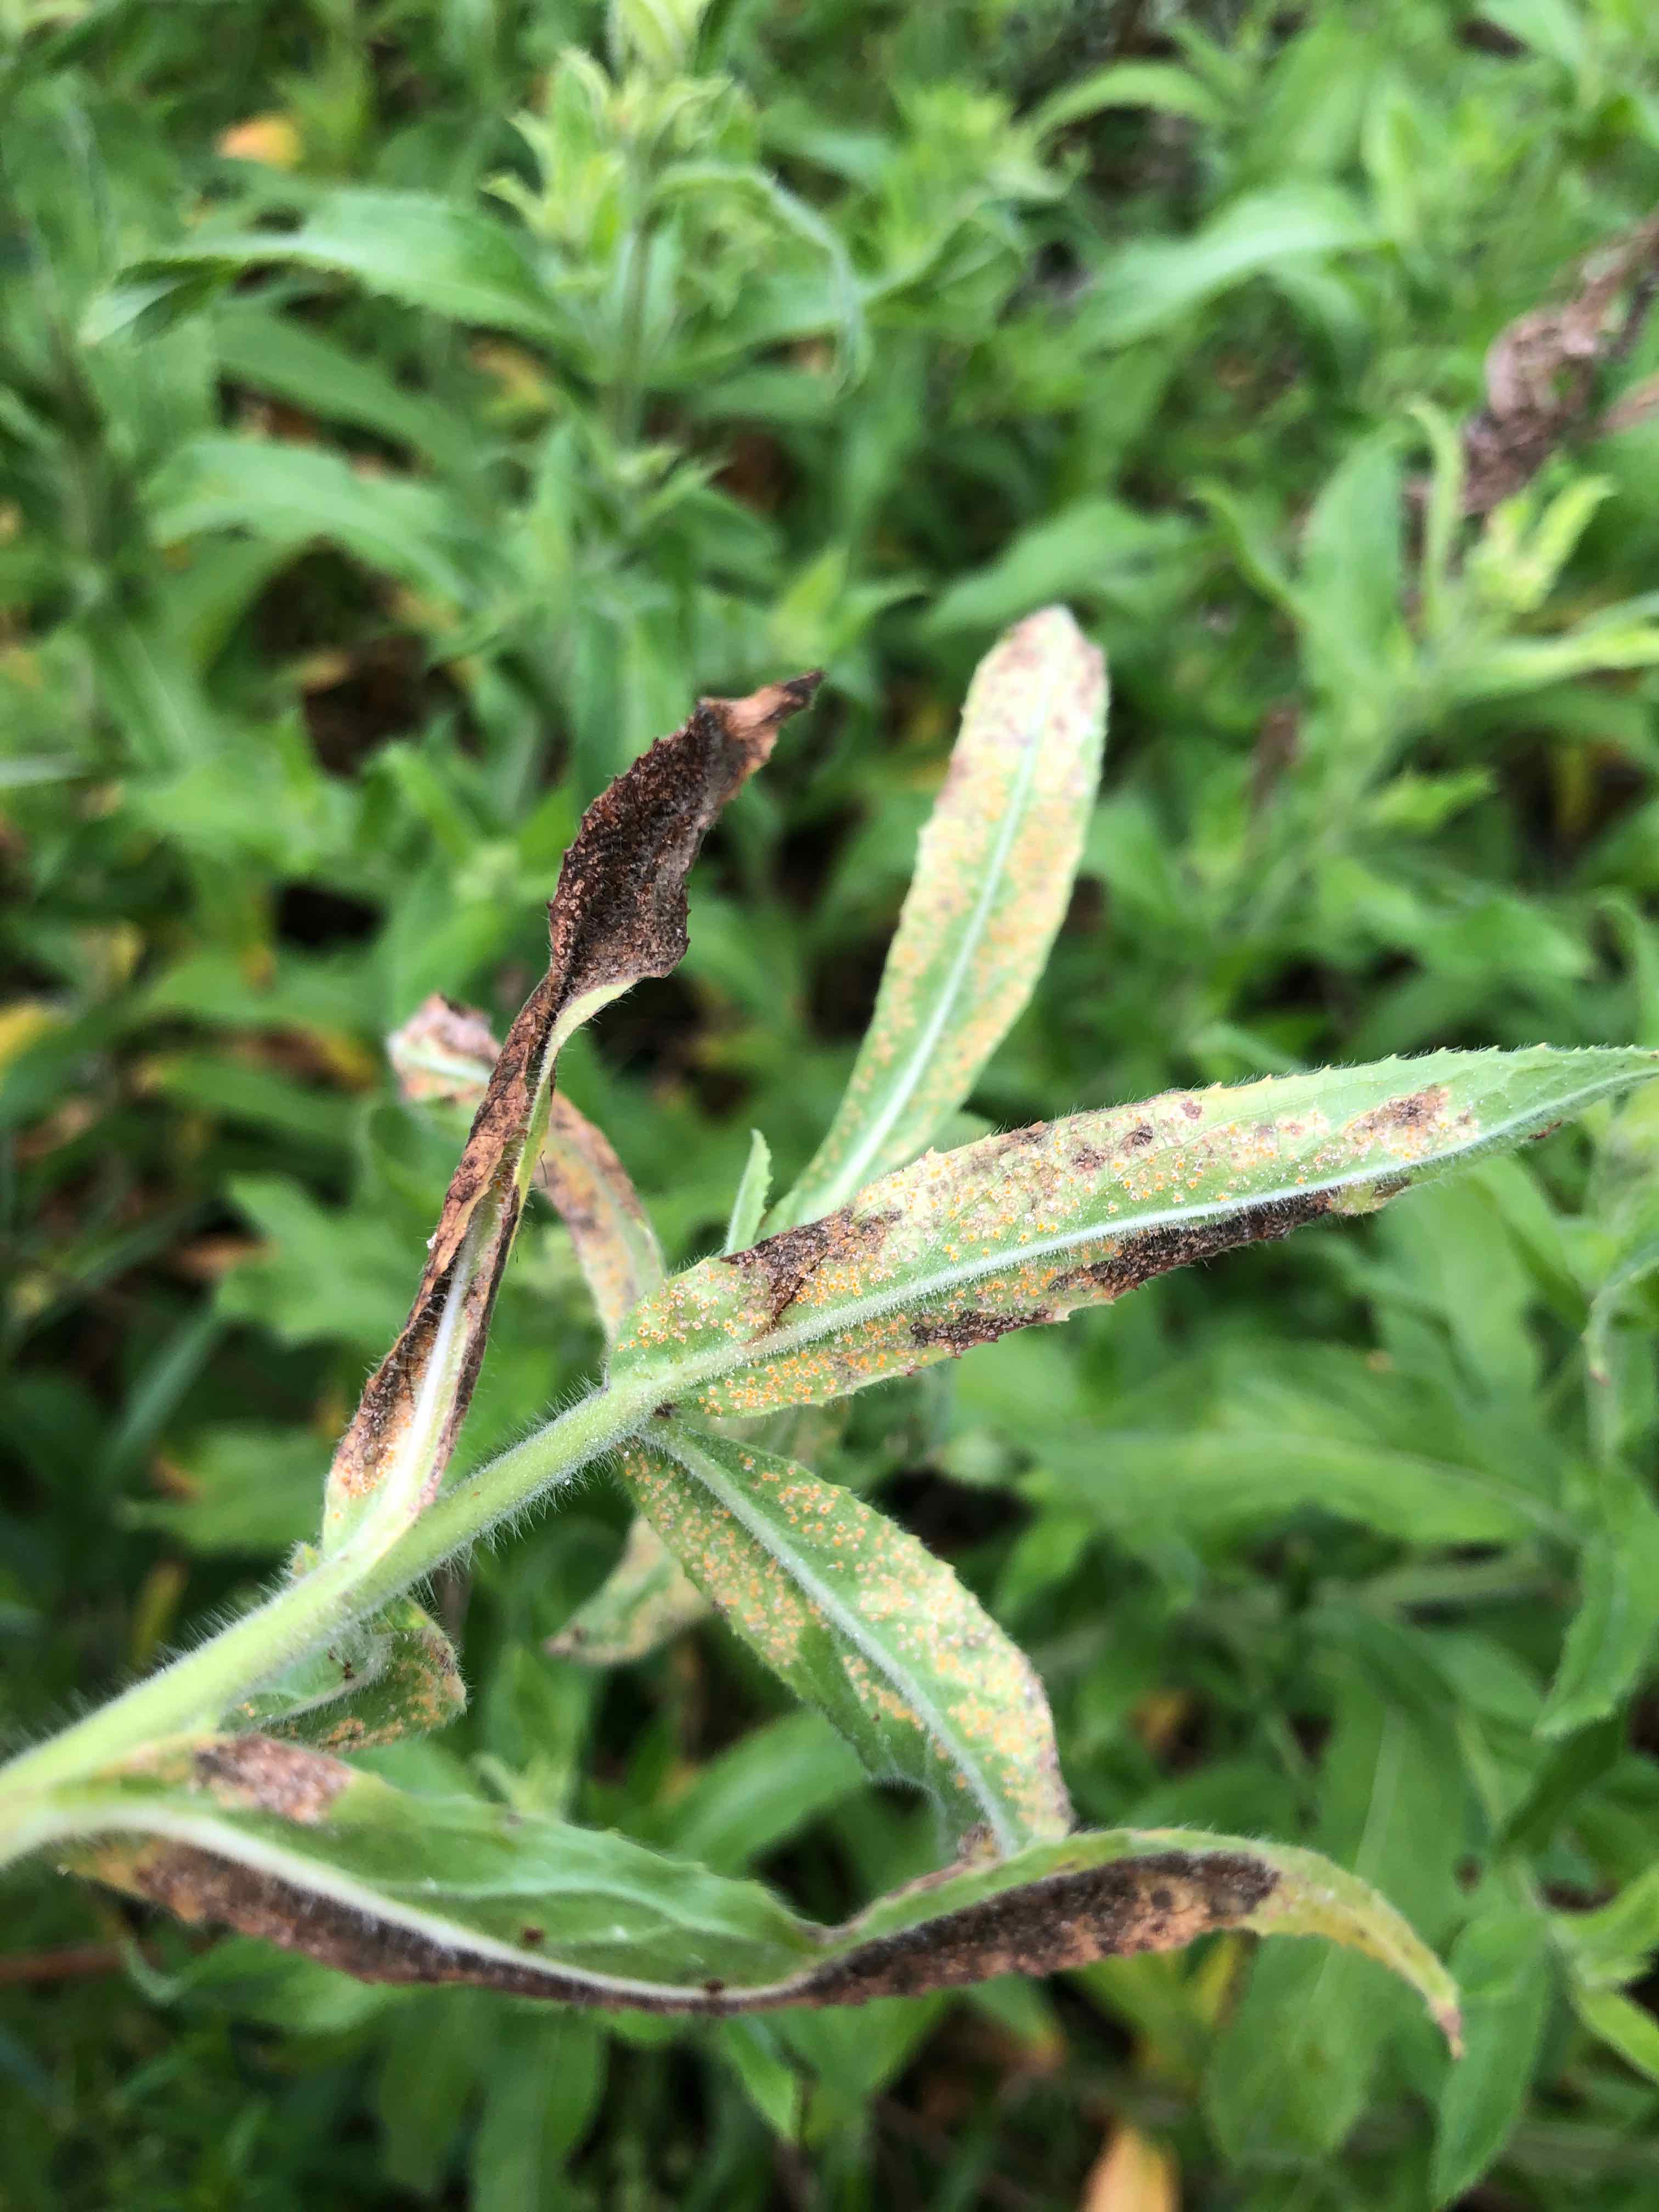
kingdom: Fungi
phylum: Basidiomycota
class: Pucciniomycetes
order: Pucciniales
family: Pucciniaceae
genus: Puccinia
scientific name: Puccinia pulverulenta
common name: dueurt-tvecellerust
